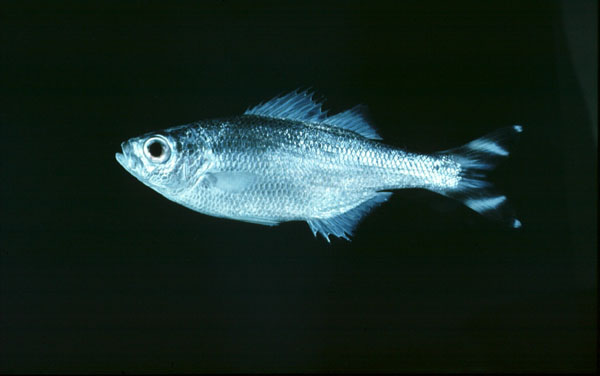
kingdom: Animalia
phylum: Chordata
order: Perciformes
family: Kuhliidae
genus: Kuhlia
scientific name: Kuhlia mugil
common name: Barred flagtail
